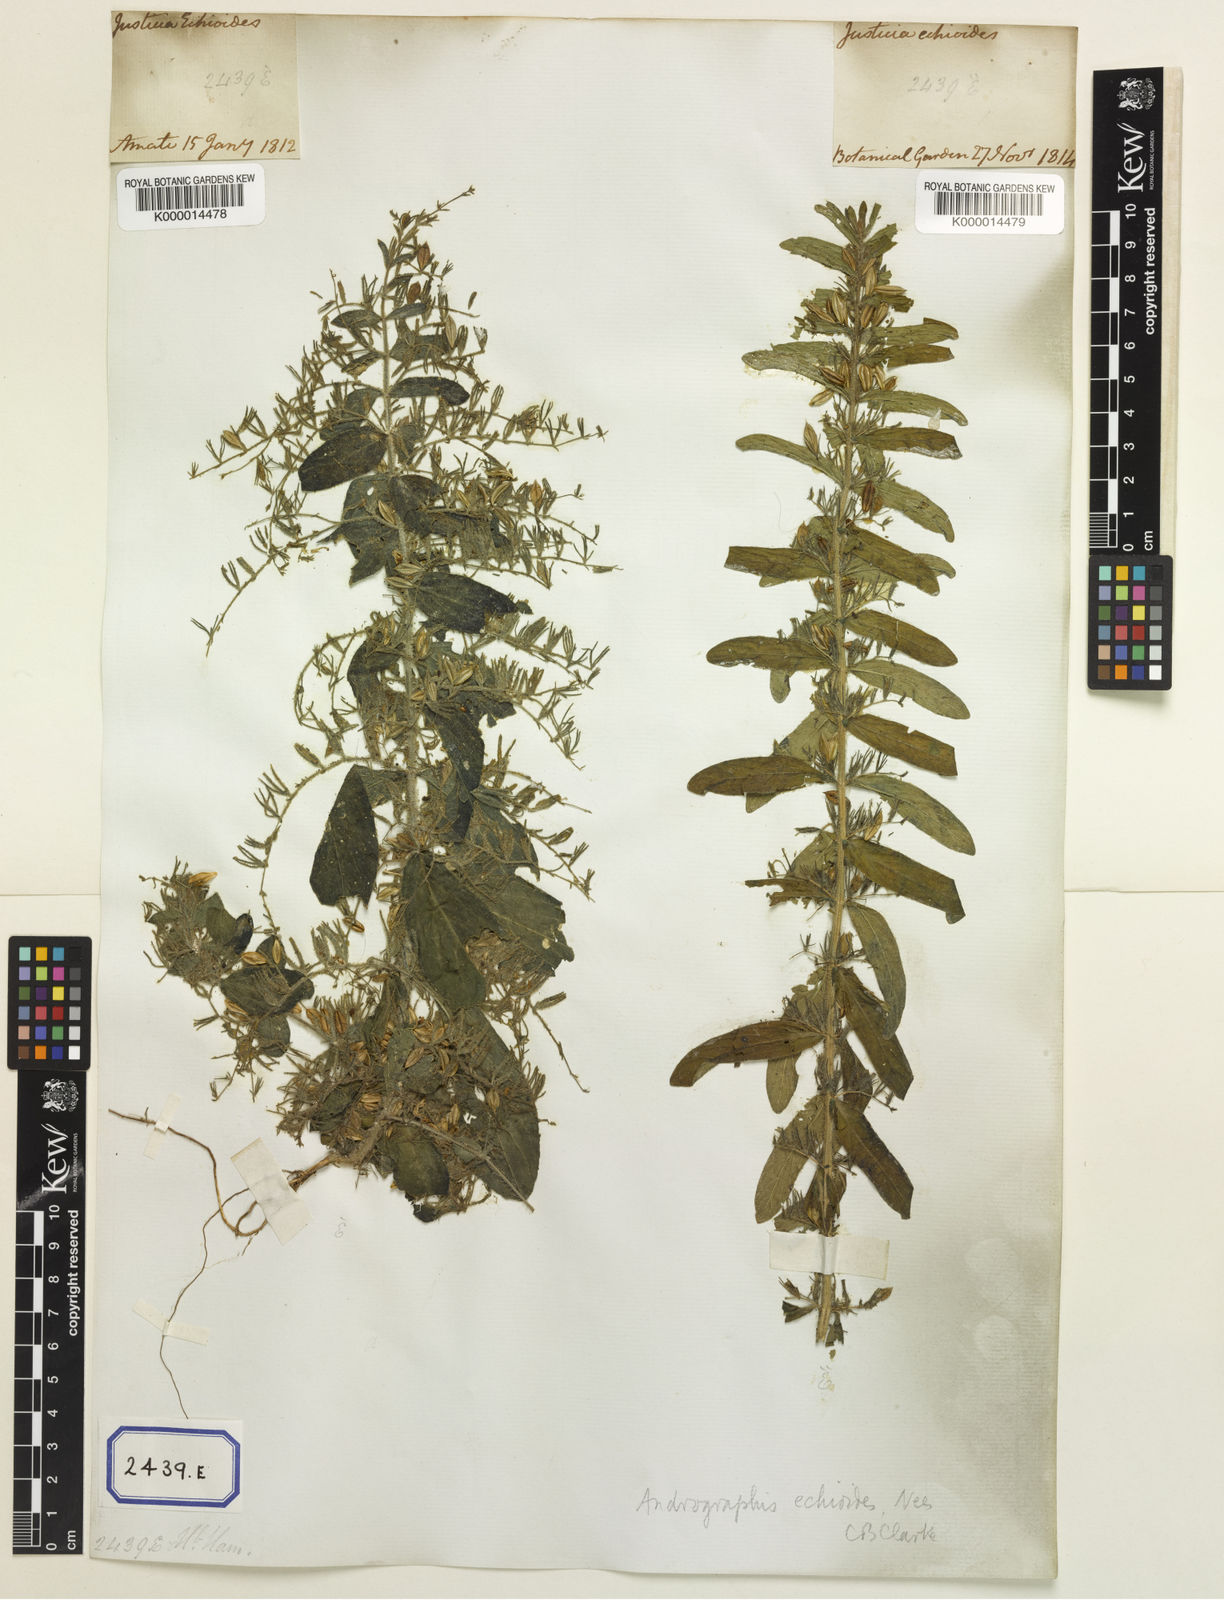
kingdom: Plantae
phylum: Tracheophyta
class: Magnoliopsida
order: Lamiales
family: Acanthaceae
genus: Andrographis
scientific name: Andrographis echioides
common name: False waterwillow
